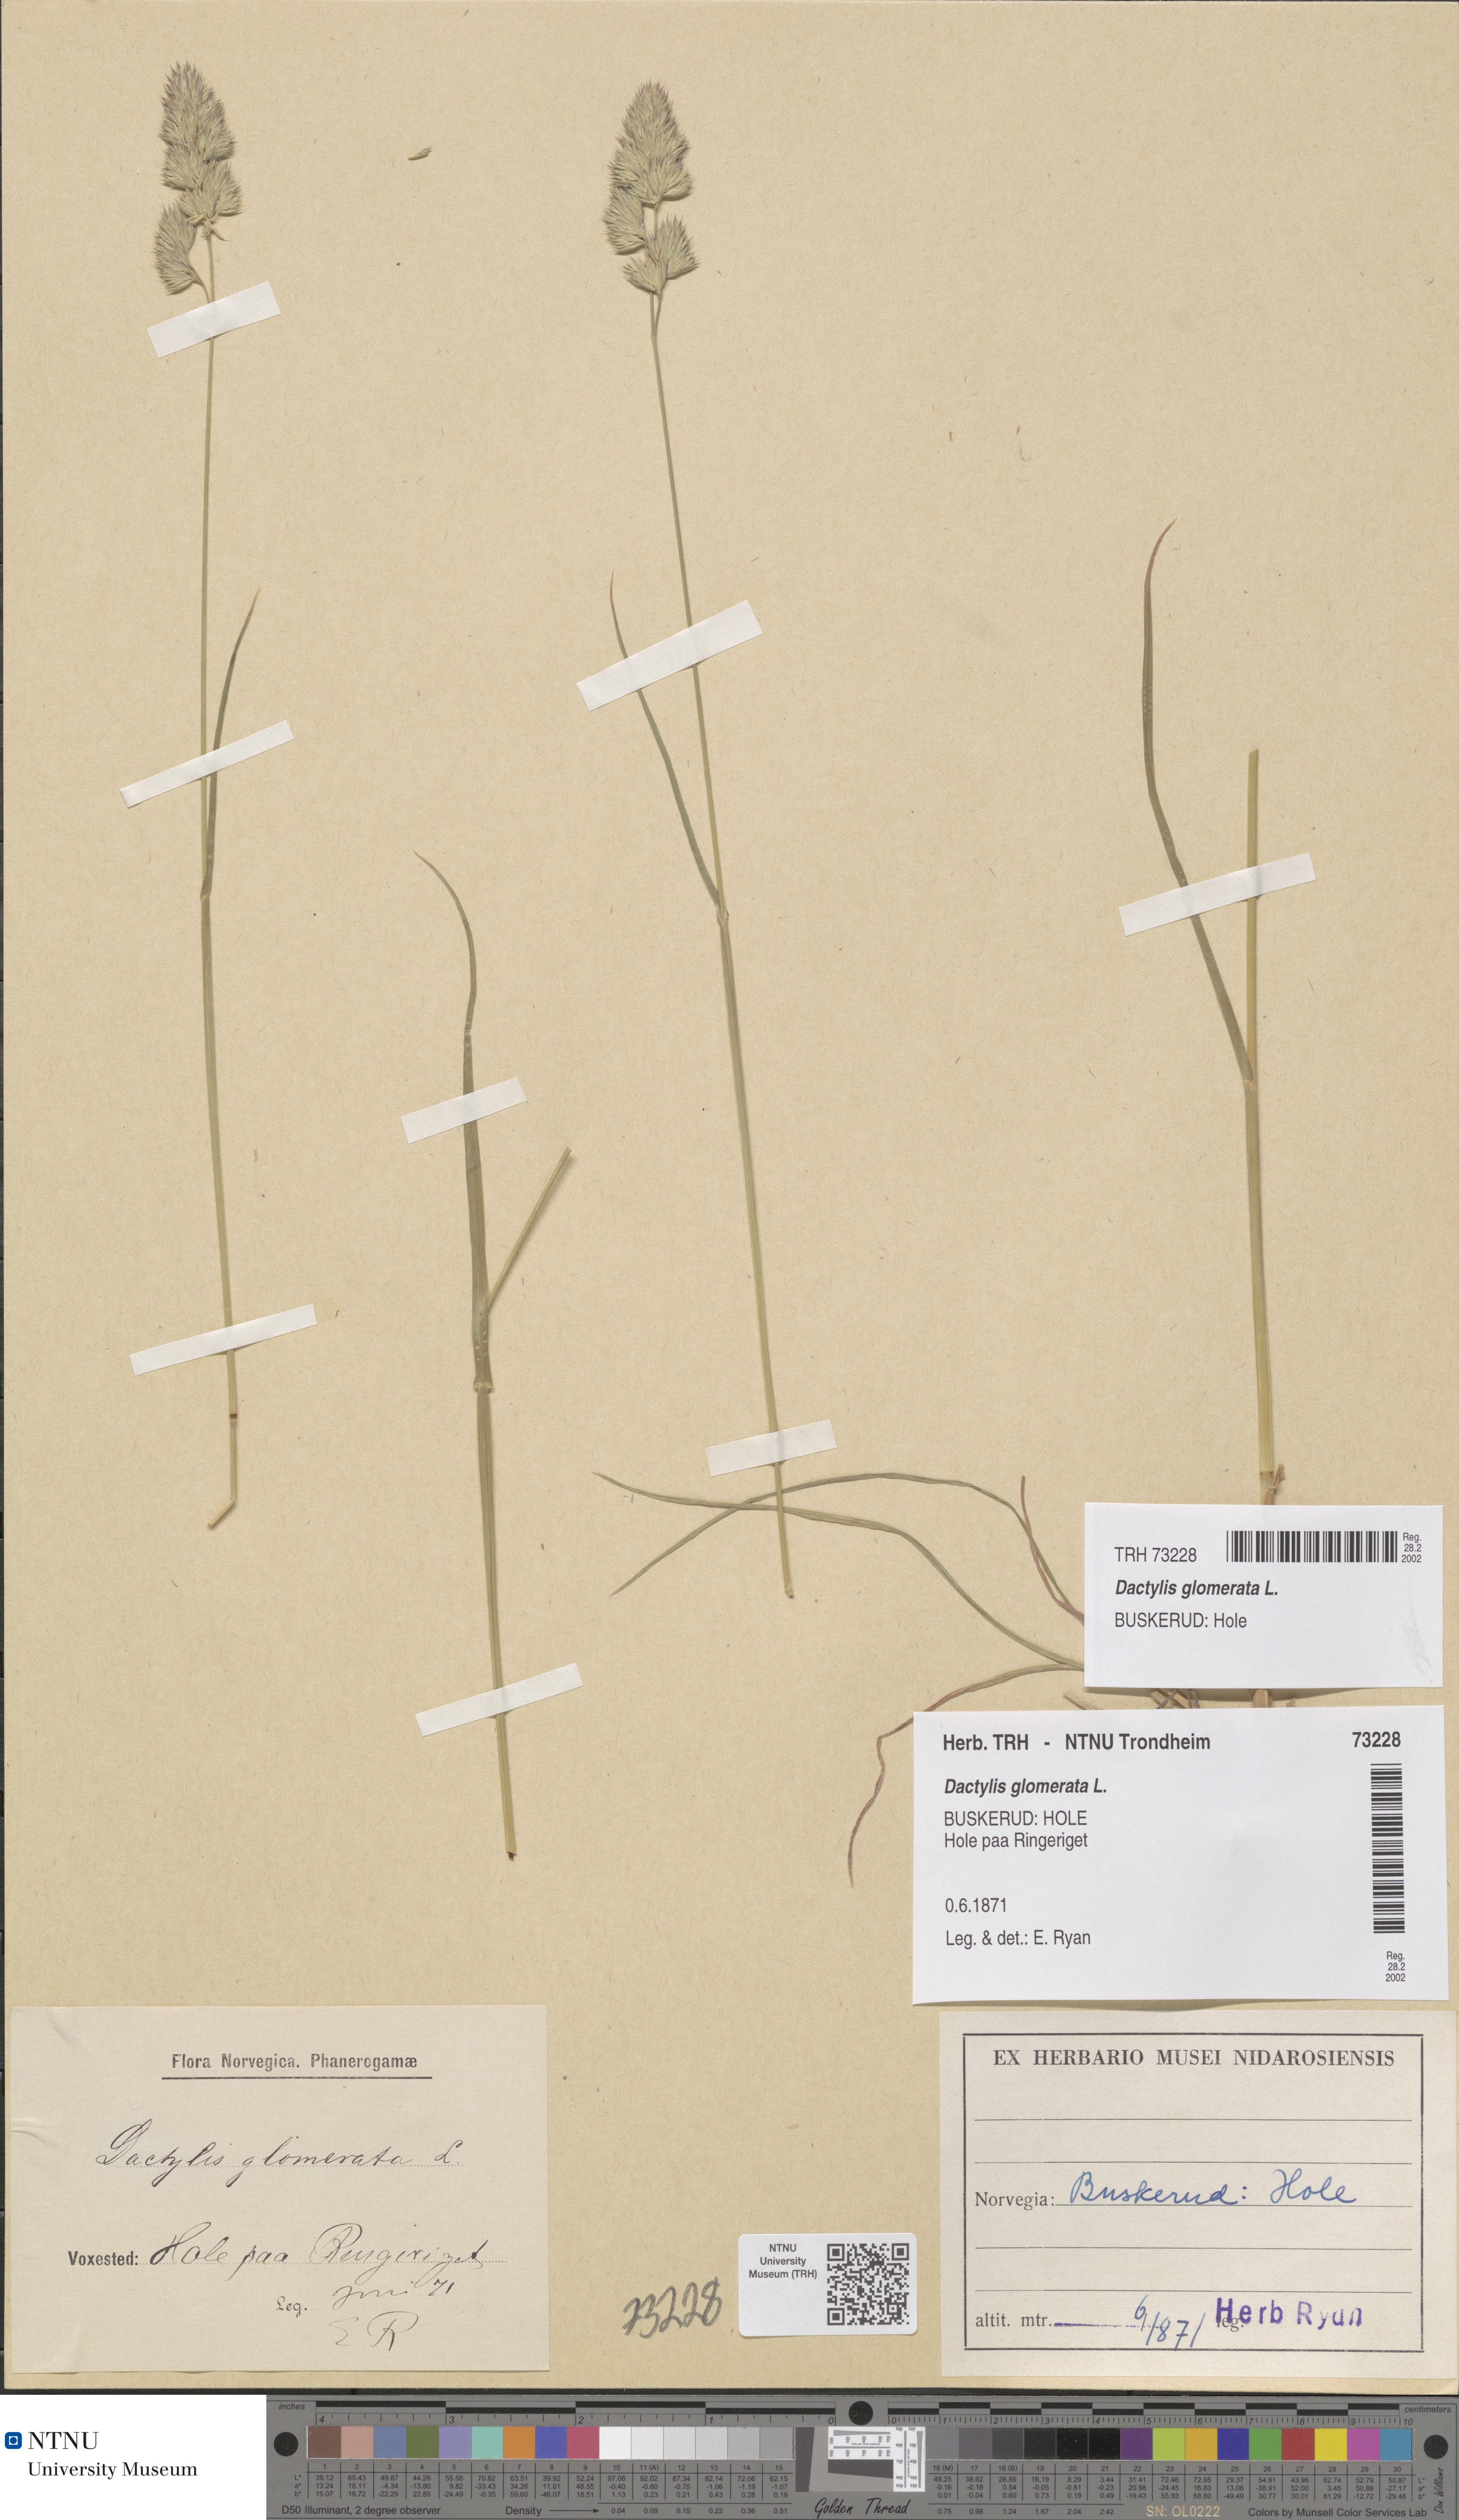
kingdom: Plantae
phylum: Tracheophyta
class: Liliopsida
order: Poales
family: Poaceae
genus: Dactylis
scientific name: Dactylis glomerata
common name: Orchardgrass
